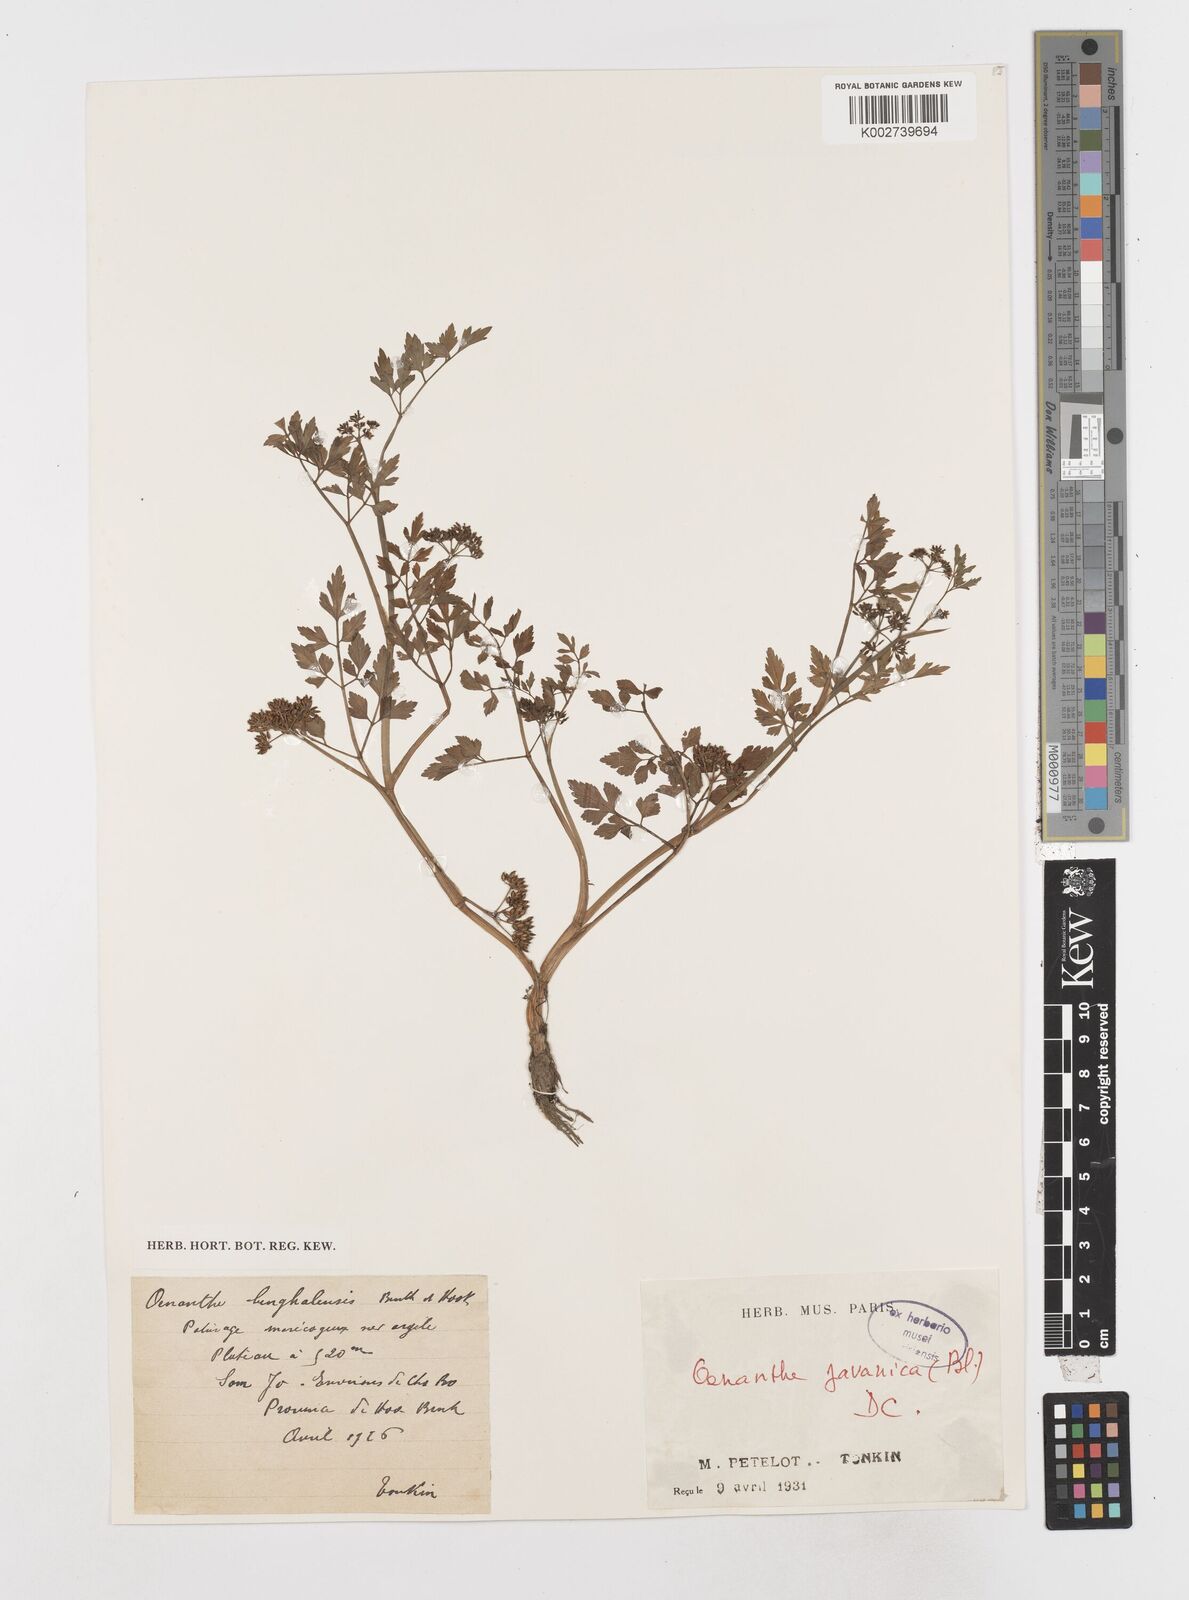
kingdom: Plantae
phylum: Tracheophyta
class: Magnoliopsida
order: Apiales
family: Apiaceae
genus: Oenanthe
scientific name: Oenanthe javanica
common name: Java water-dropwort
